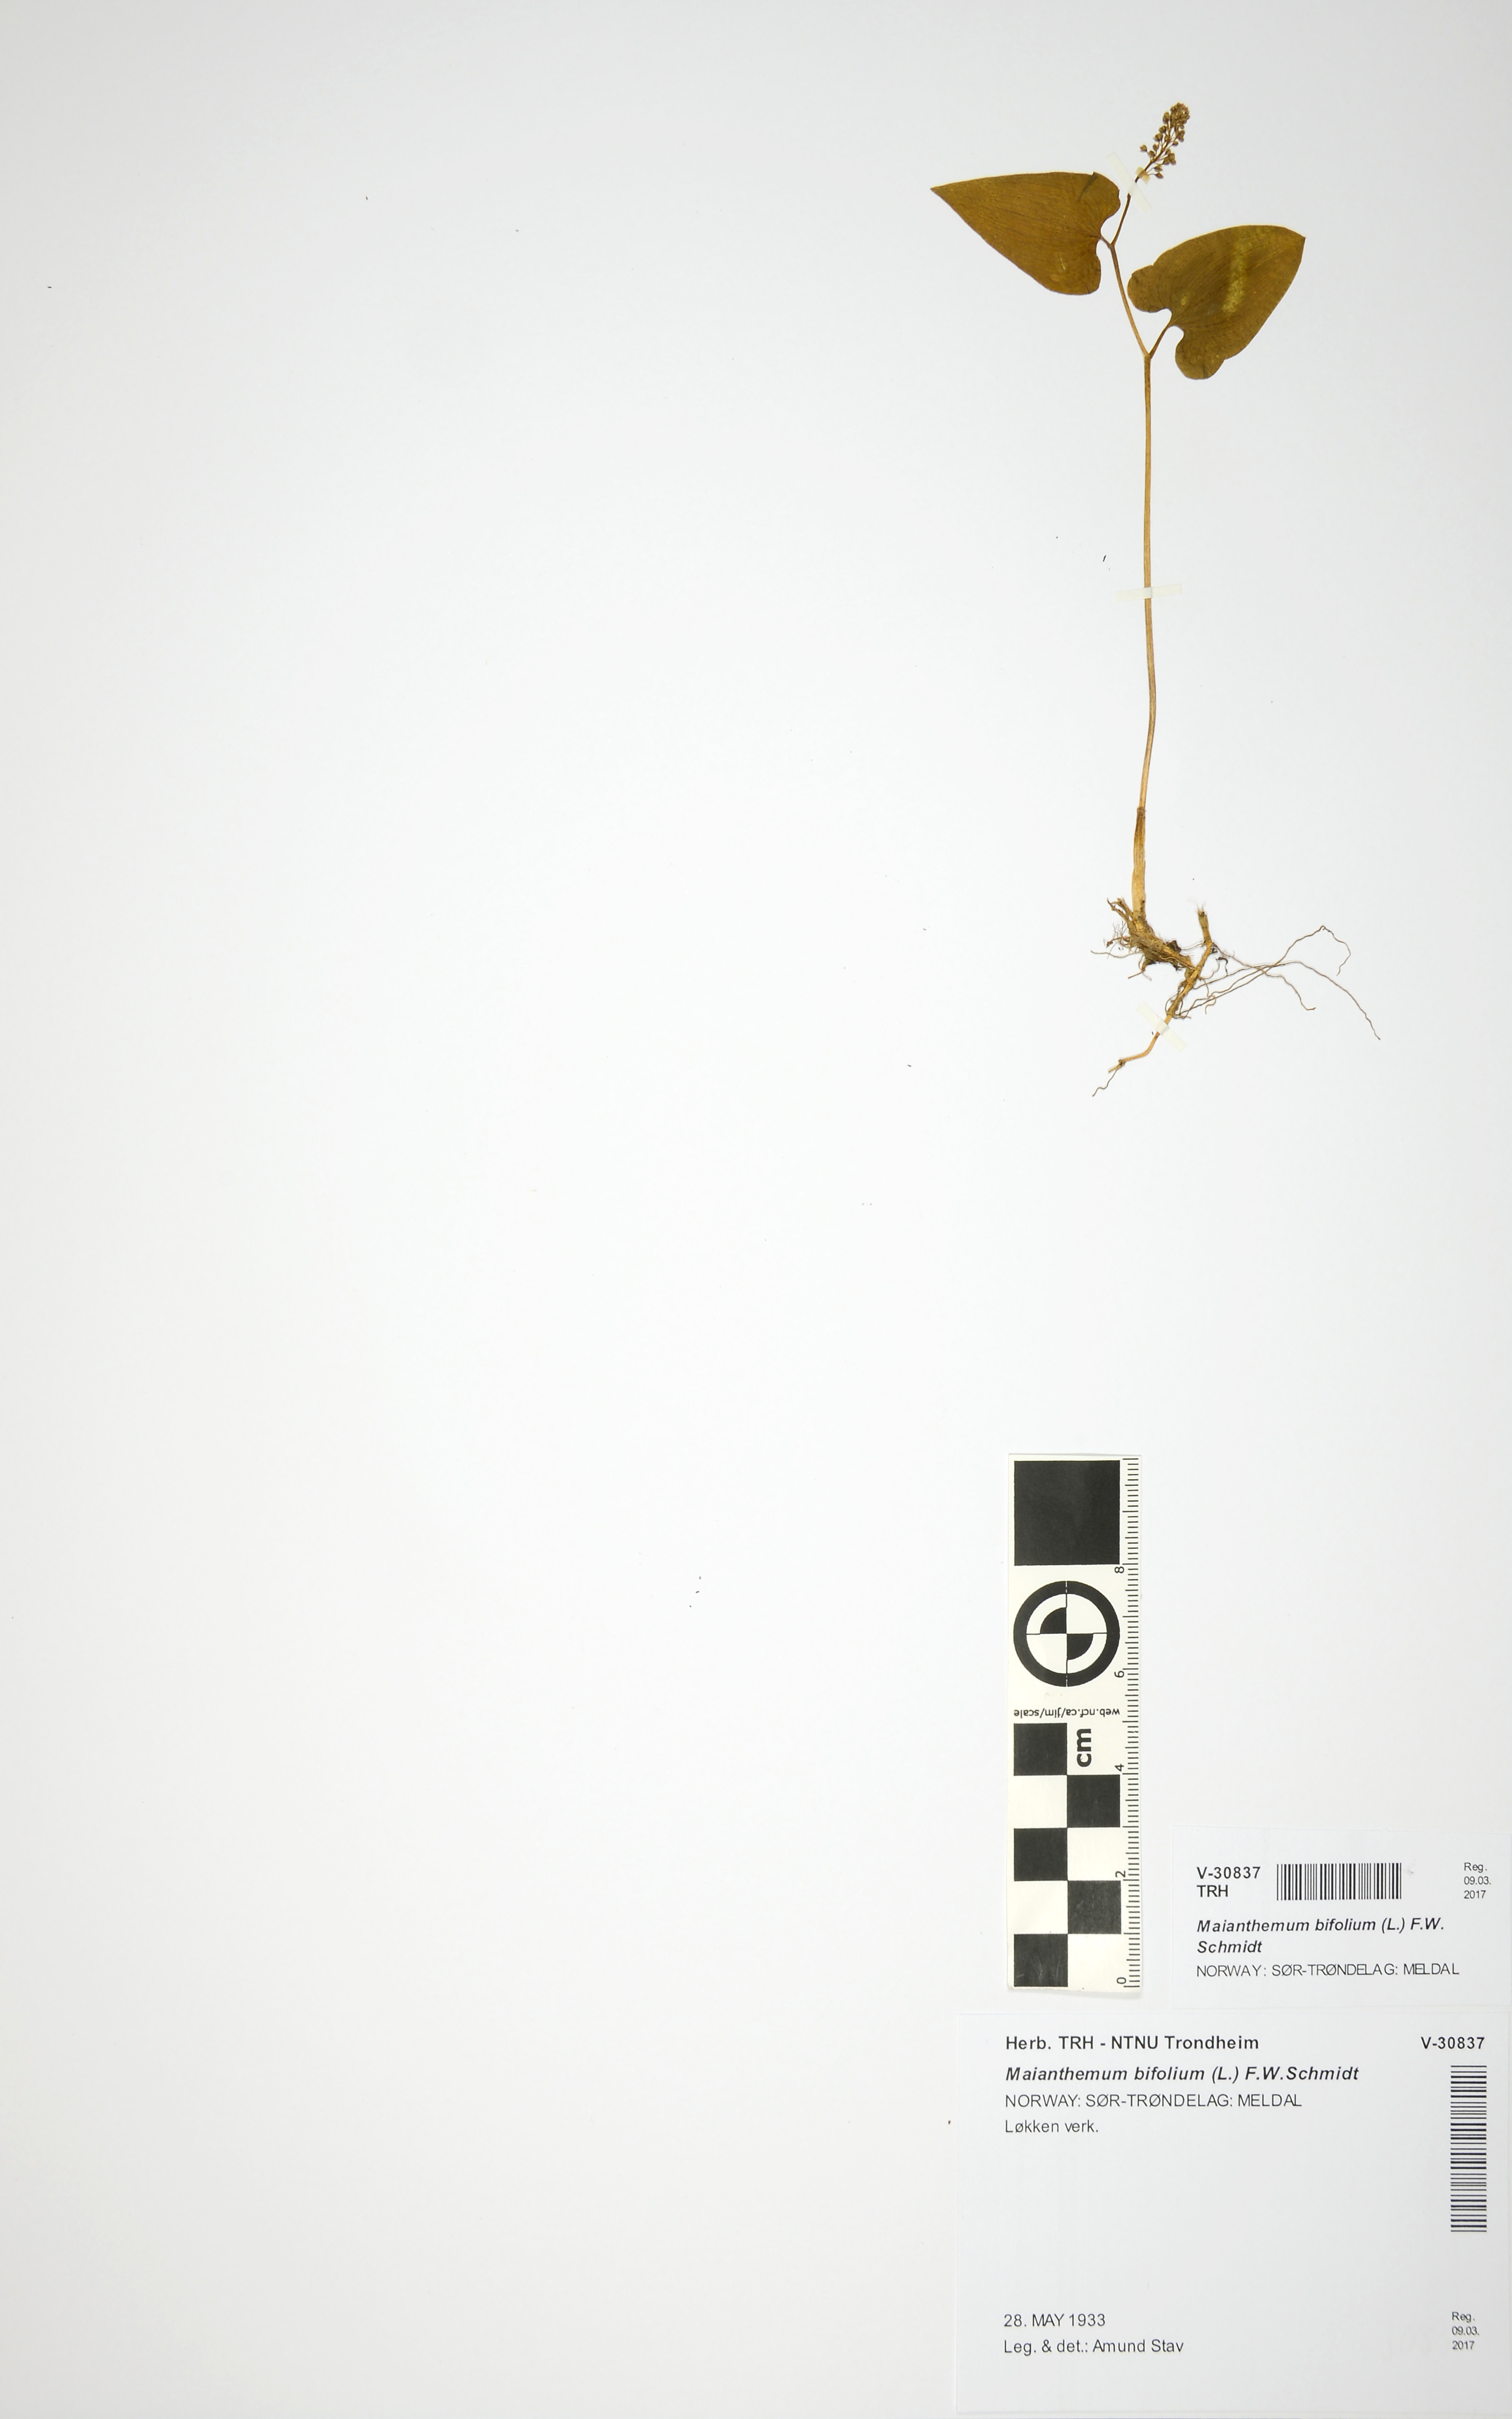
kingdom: Plantae
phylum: Tracheophyta
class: Liliopsida
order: Asparagales
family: Asparagaceae
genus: Maianthemum
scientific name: Maianthemum bifolium
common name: May lily
